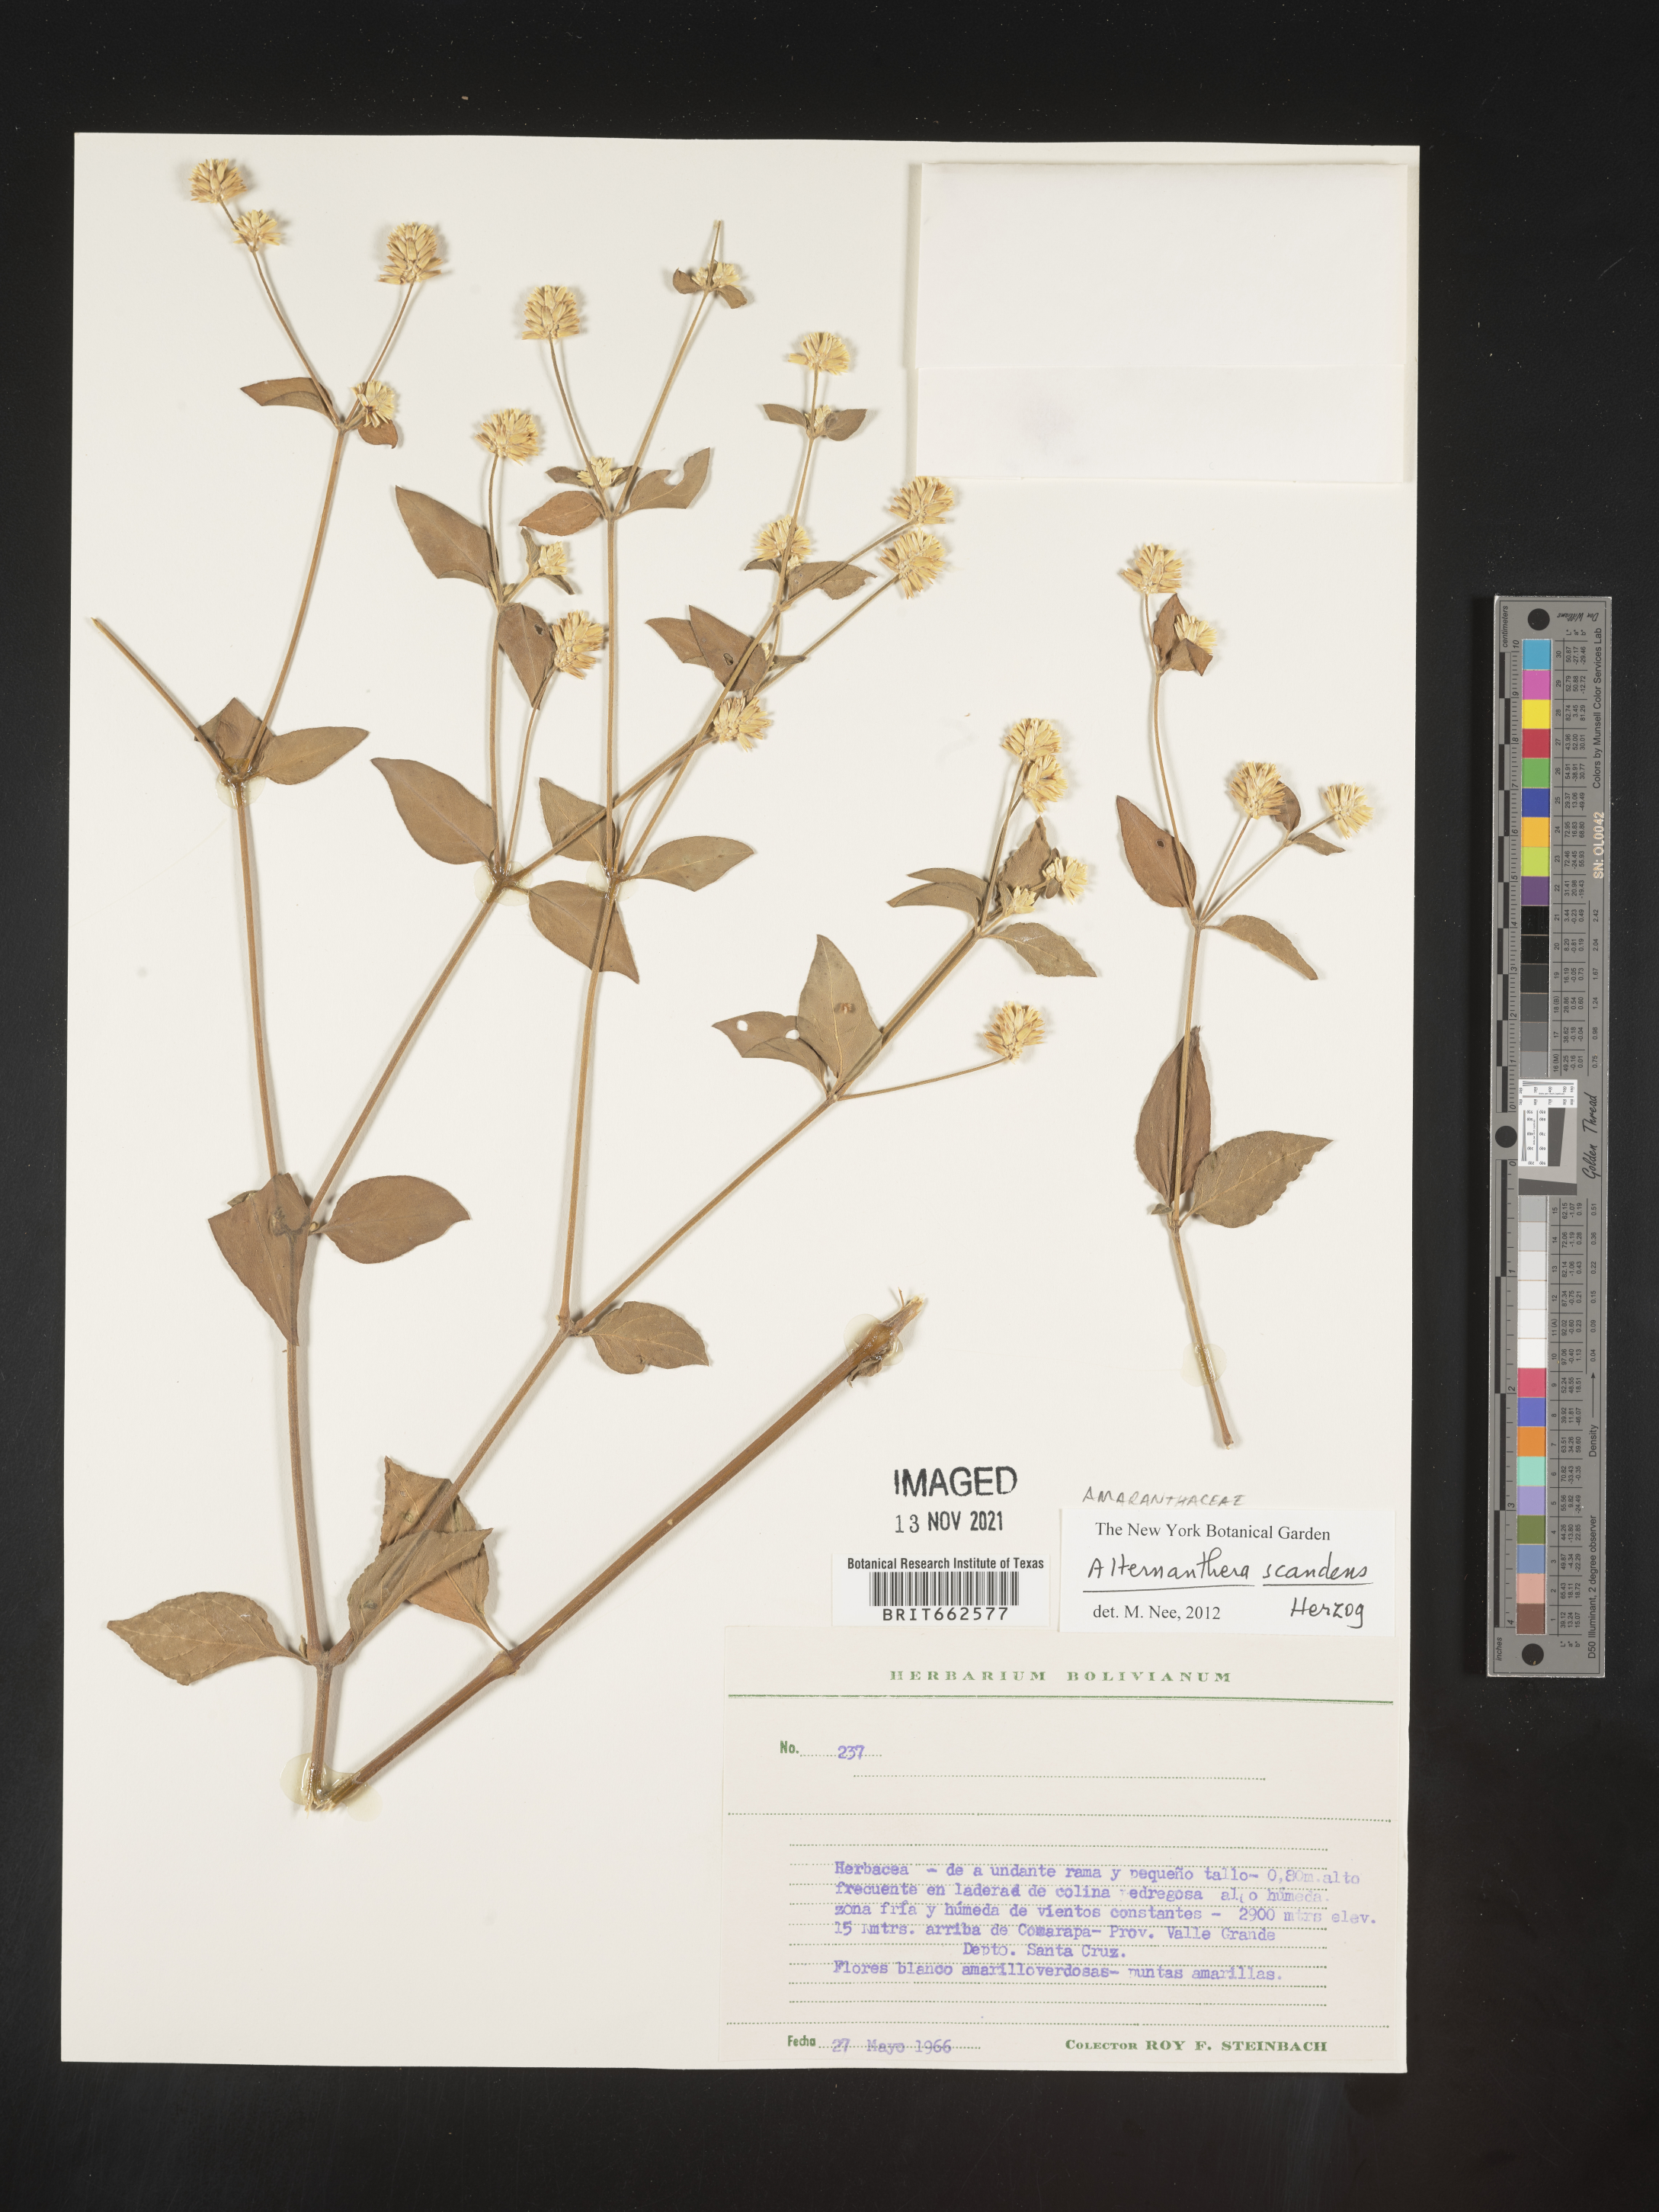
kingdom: Plantae
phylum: Tracheophyta
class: Magnoliopsida
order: Caryophyllales
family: Amaranthaceae
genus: Alternanthera
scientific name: Alternanthera
